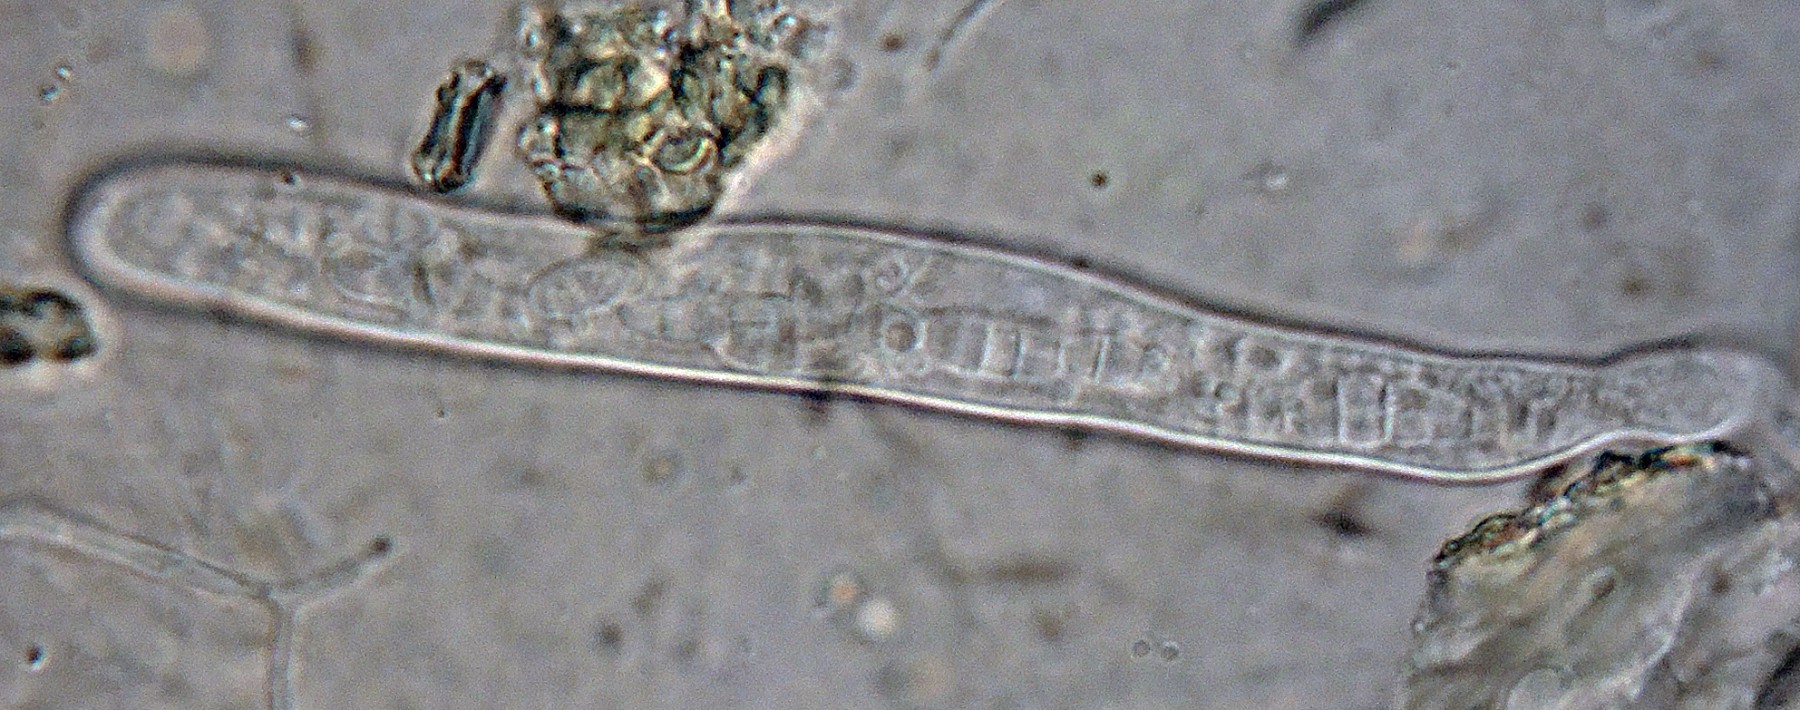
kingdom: Fungi
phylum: Ascomycota
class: Leotiomycetes
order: Leotiales
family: Tympanidaceae
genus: Vexillomyces
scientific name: Vexillomyces atrovirens
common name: sortgrøn linseskive
